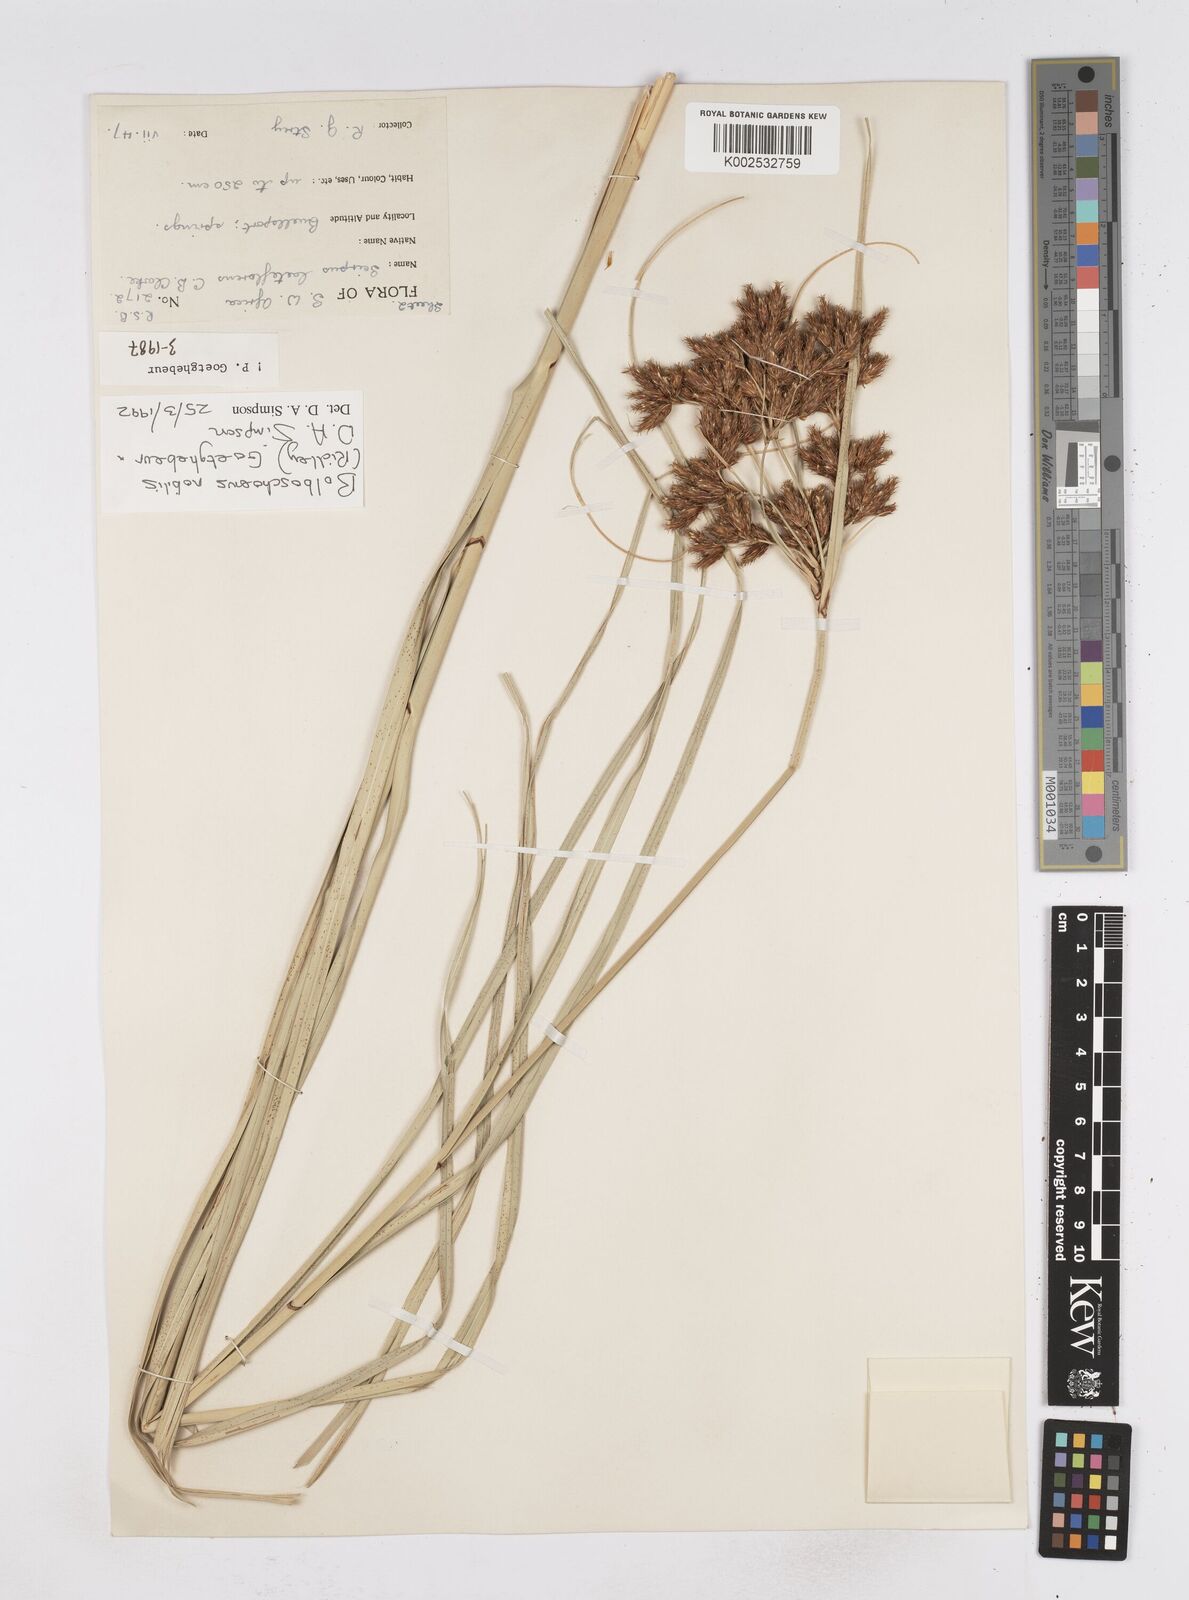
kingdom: Plantae
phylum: Tracheophyta
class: Liliopsida
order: Poales
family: Cyperaceae
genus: Bolboschoenus
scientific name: Bolboschoenus nobilis
